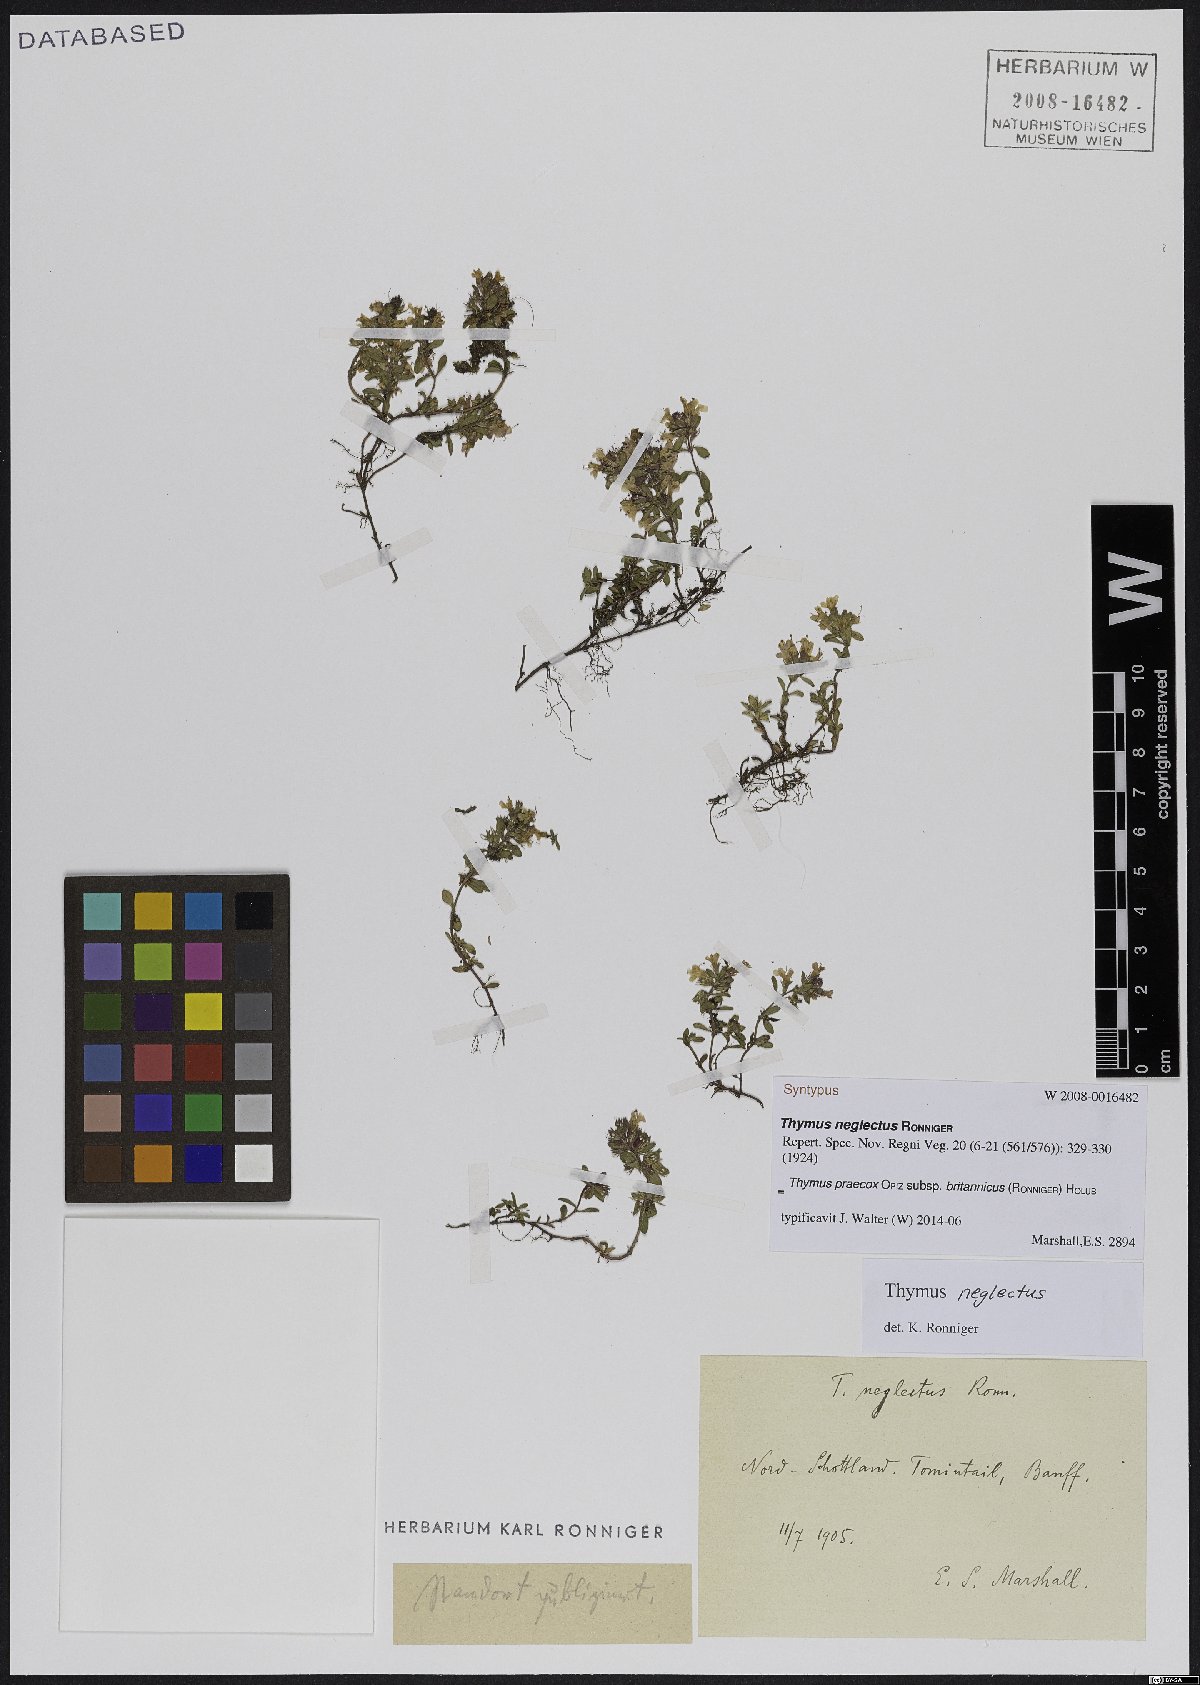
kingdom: Plantae
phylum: Tracheophyta
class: Magnoliopsida
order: Lamiales
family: Lamiaceae
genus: Thymus
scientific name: Thymus praecox
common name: Wild thyme
